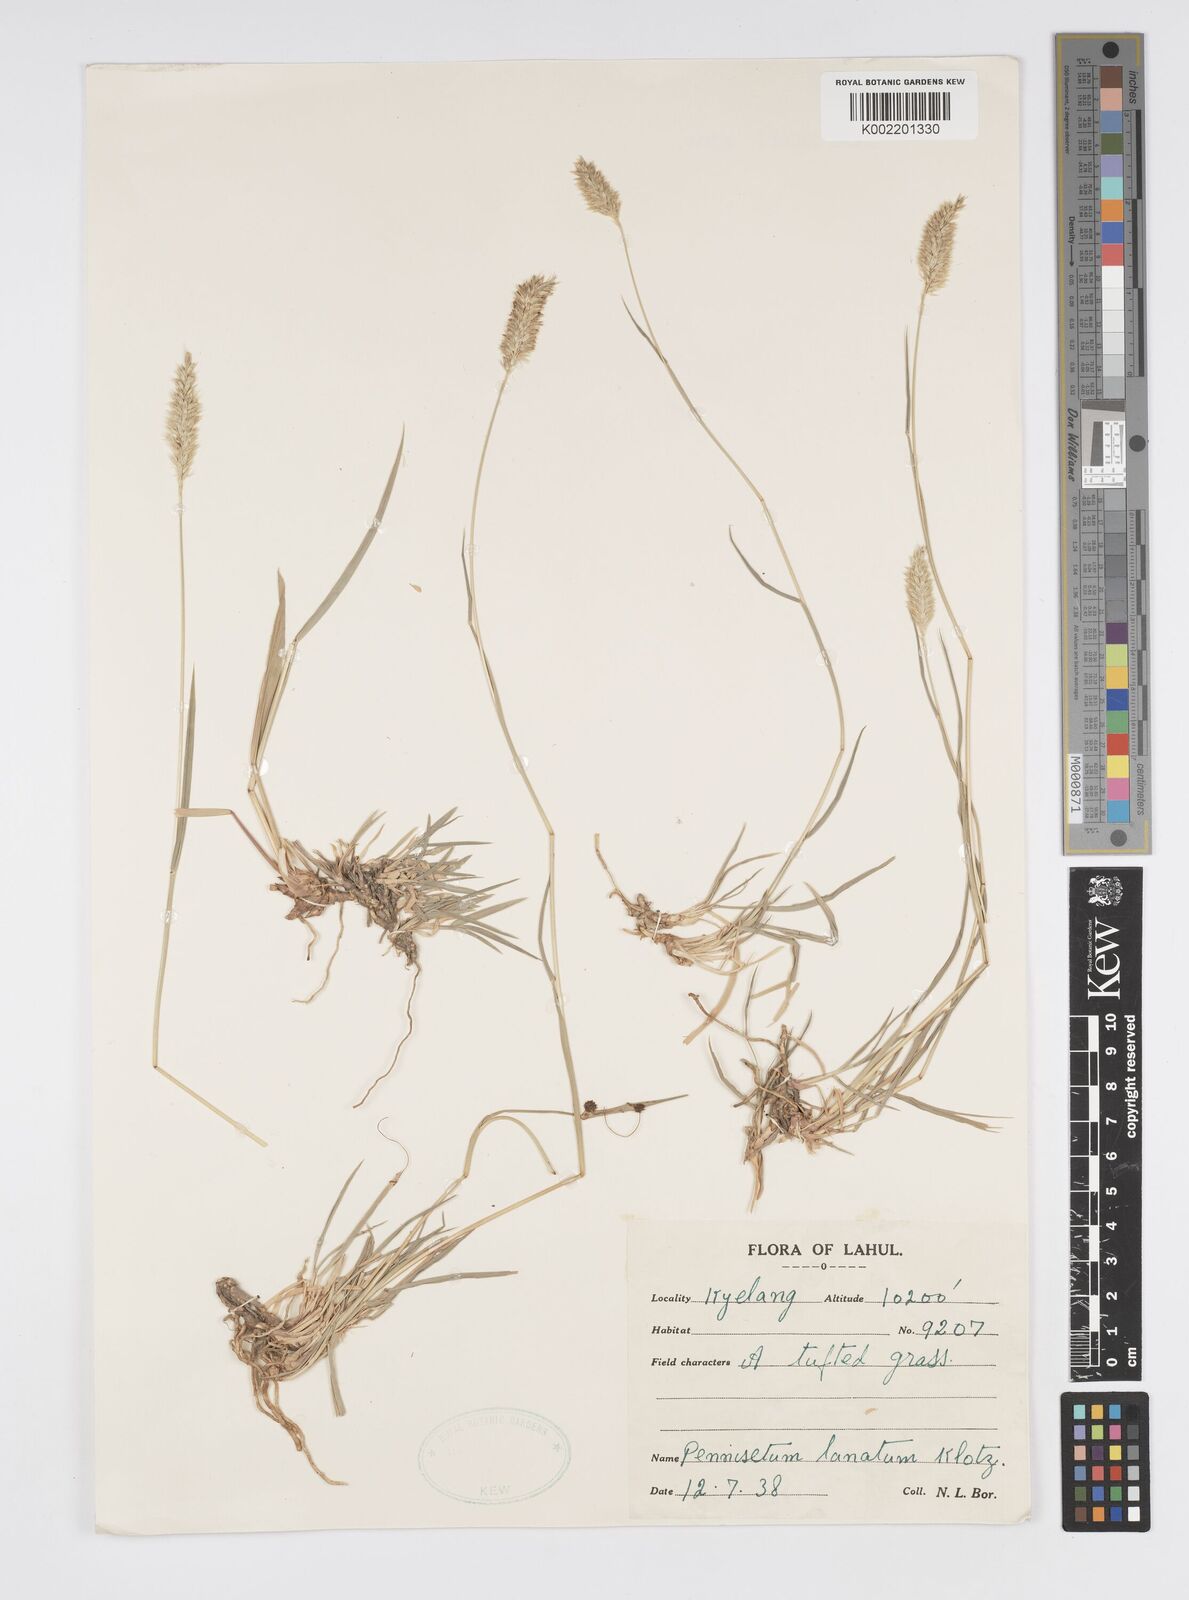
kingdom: Plantae
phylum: Tracheophyta
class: Liliopsida
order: Poales
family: Poaceae
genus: Cenchrus
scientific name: Cenchrus lanatus
